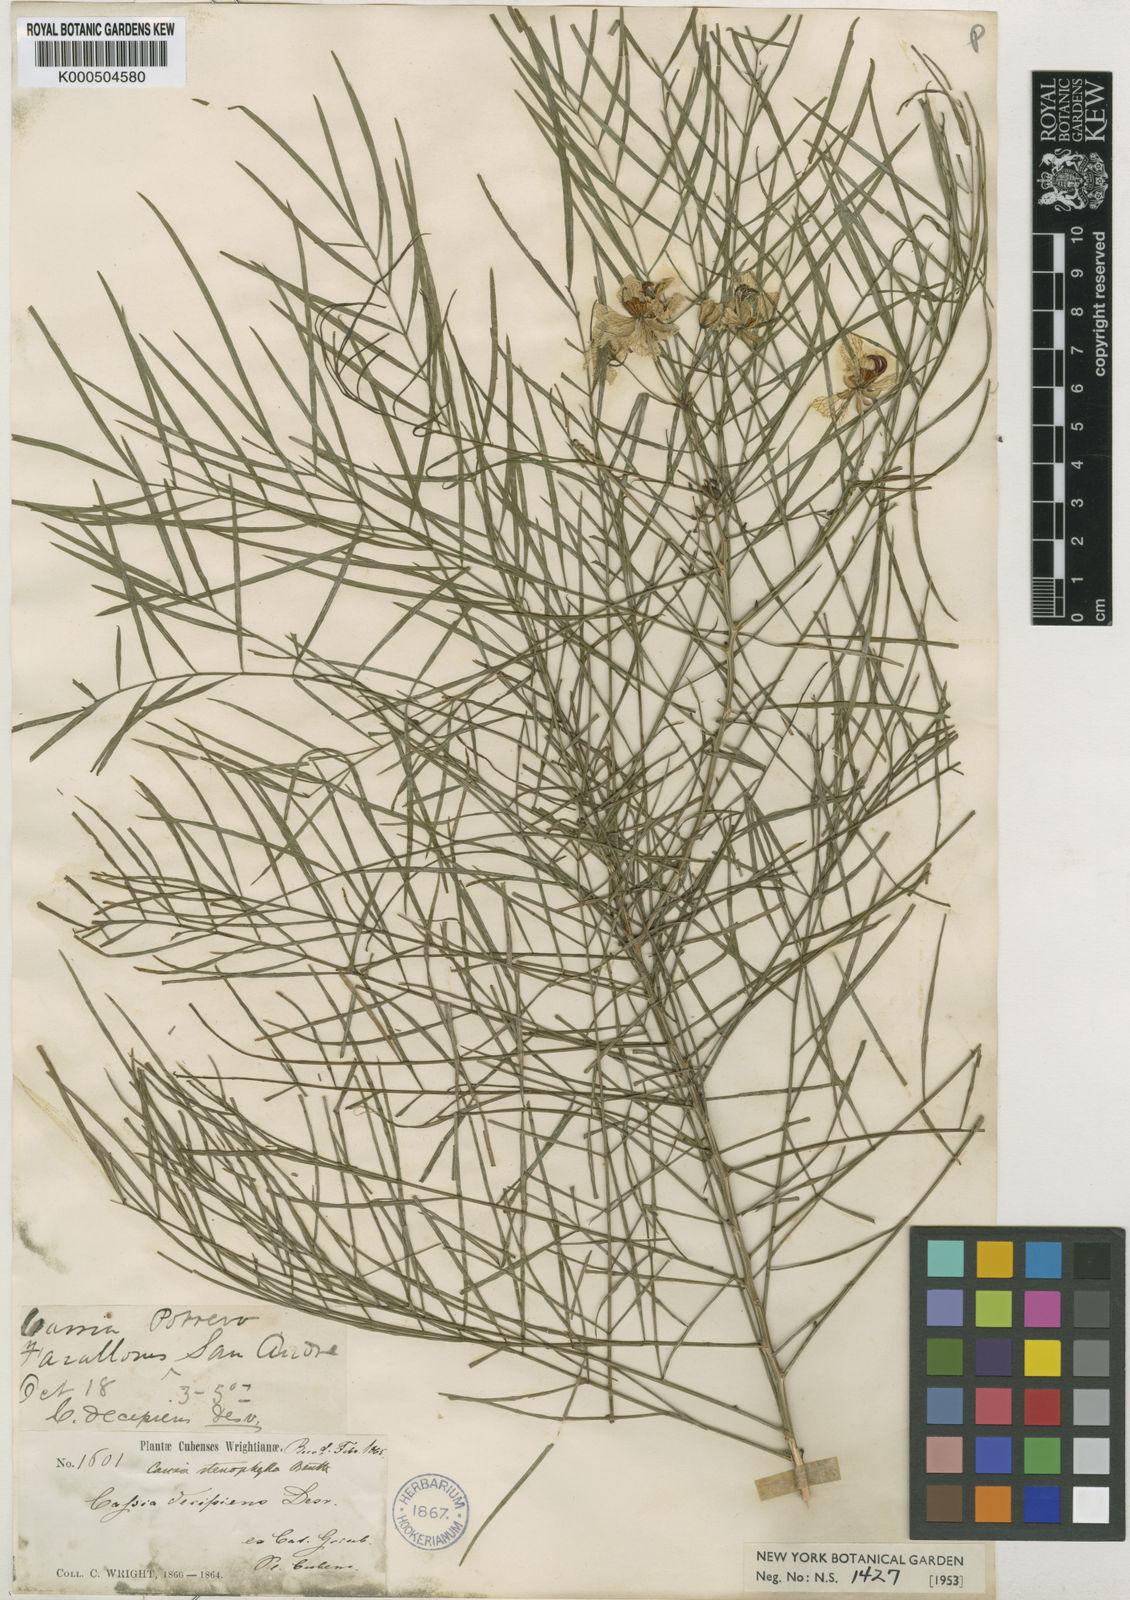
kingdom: Plantae
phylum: Tracheophyta
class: Magnoliopsida
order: Fabales
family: Fabaceae
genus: Senna
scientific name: Senna stenophylla
